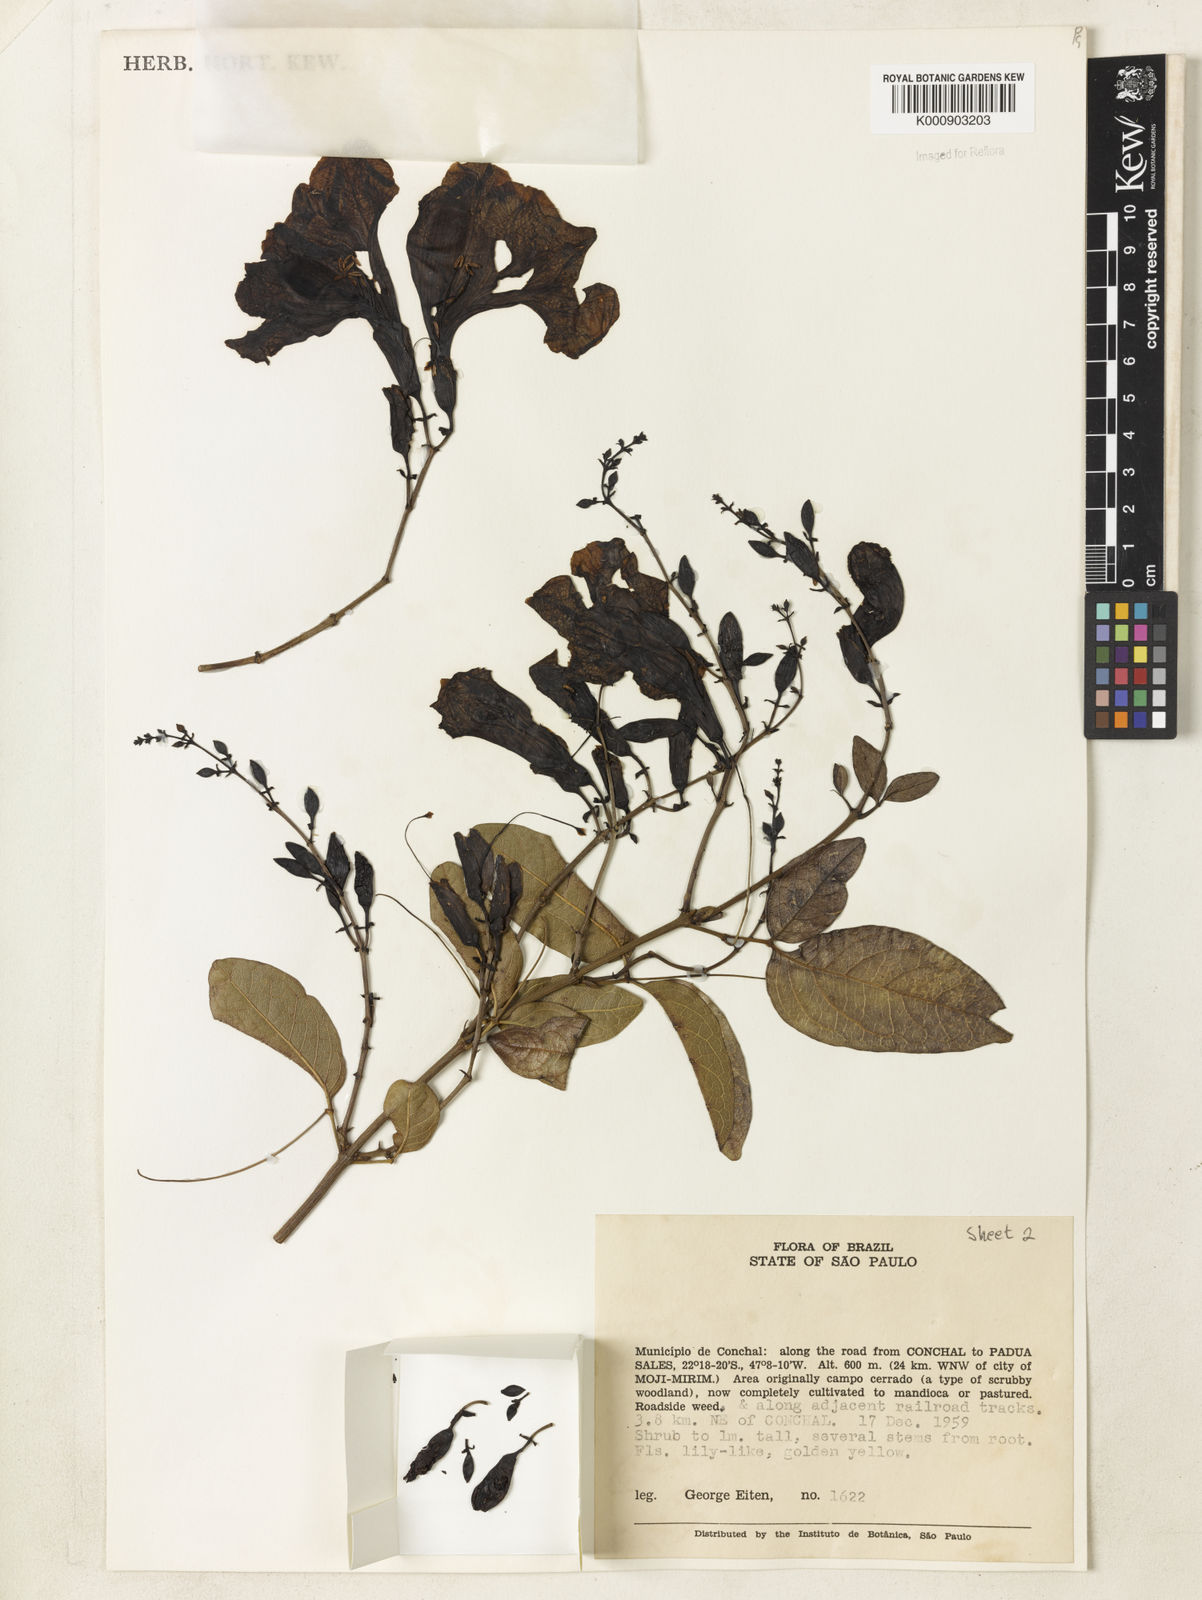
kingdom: Plantae
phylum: Tracheophyta
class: Magnoliopsida
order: Lamiales
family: Bignoniaceae
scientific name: Bignoniaceae
